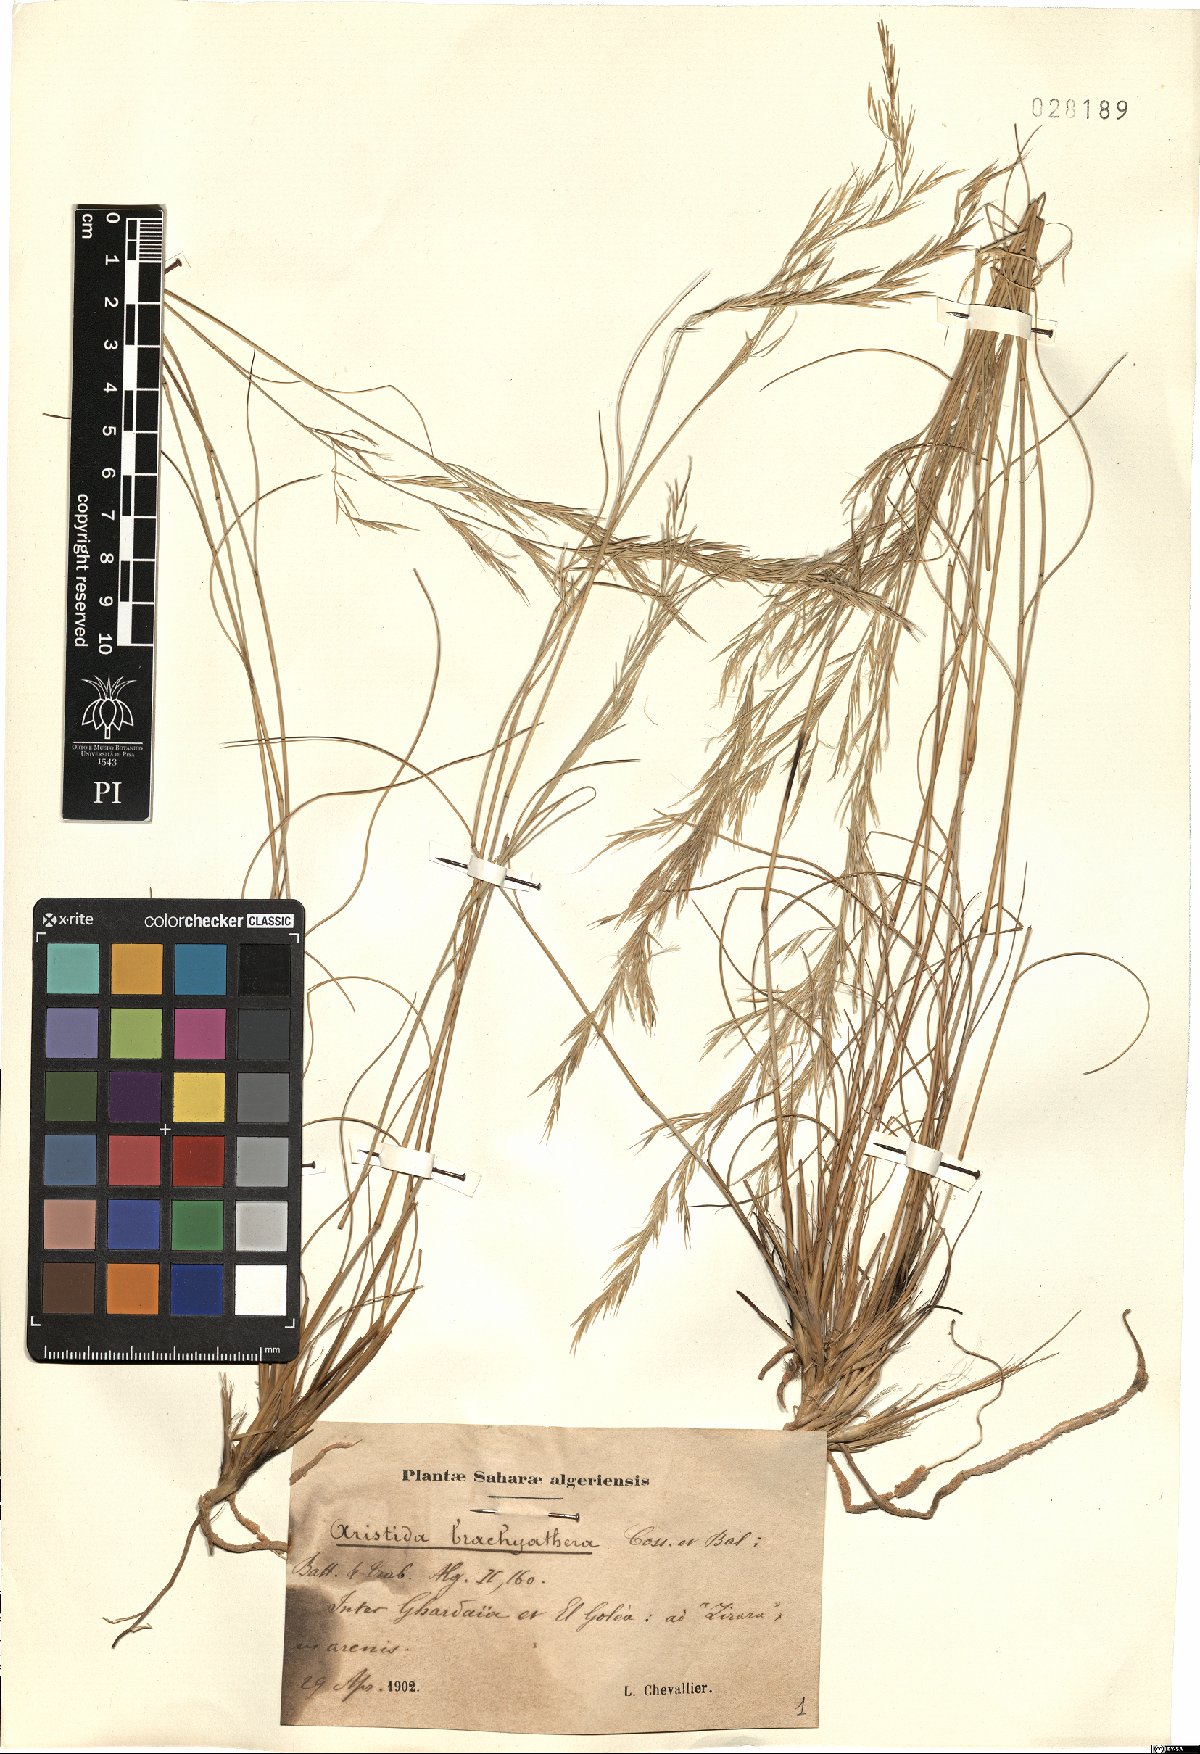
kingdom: Plantae
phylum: Tracheophyta
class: Liliopsida
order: Poales
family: Poaceae
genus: Stipagrostis
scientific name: Stipagrostis brachyathera
